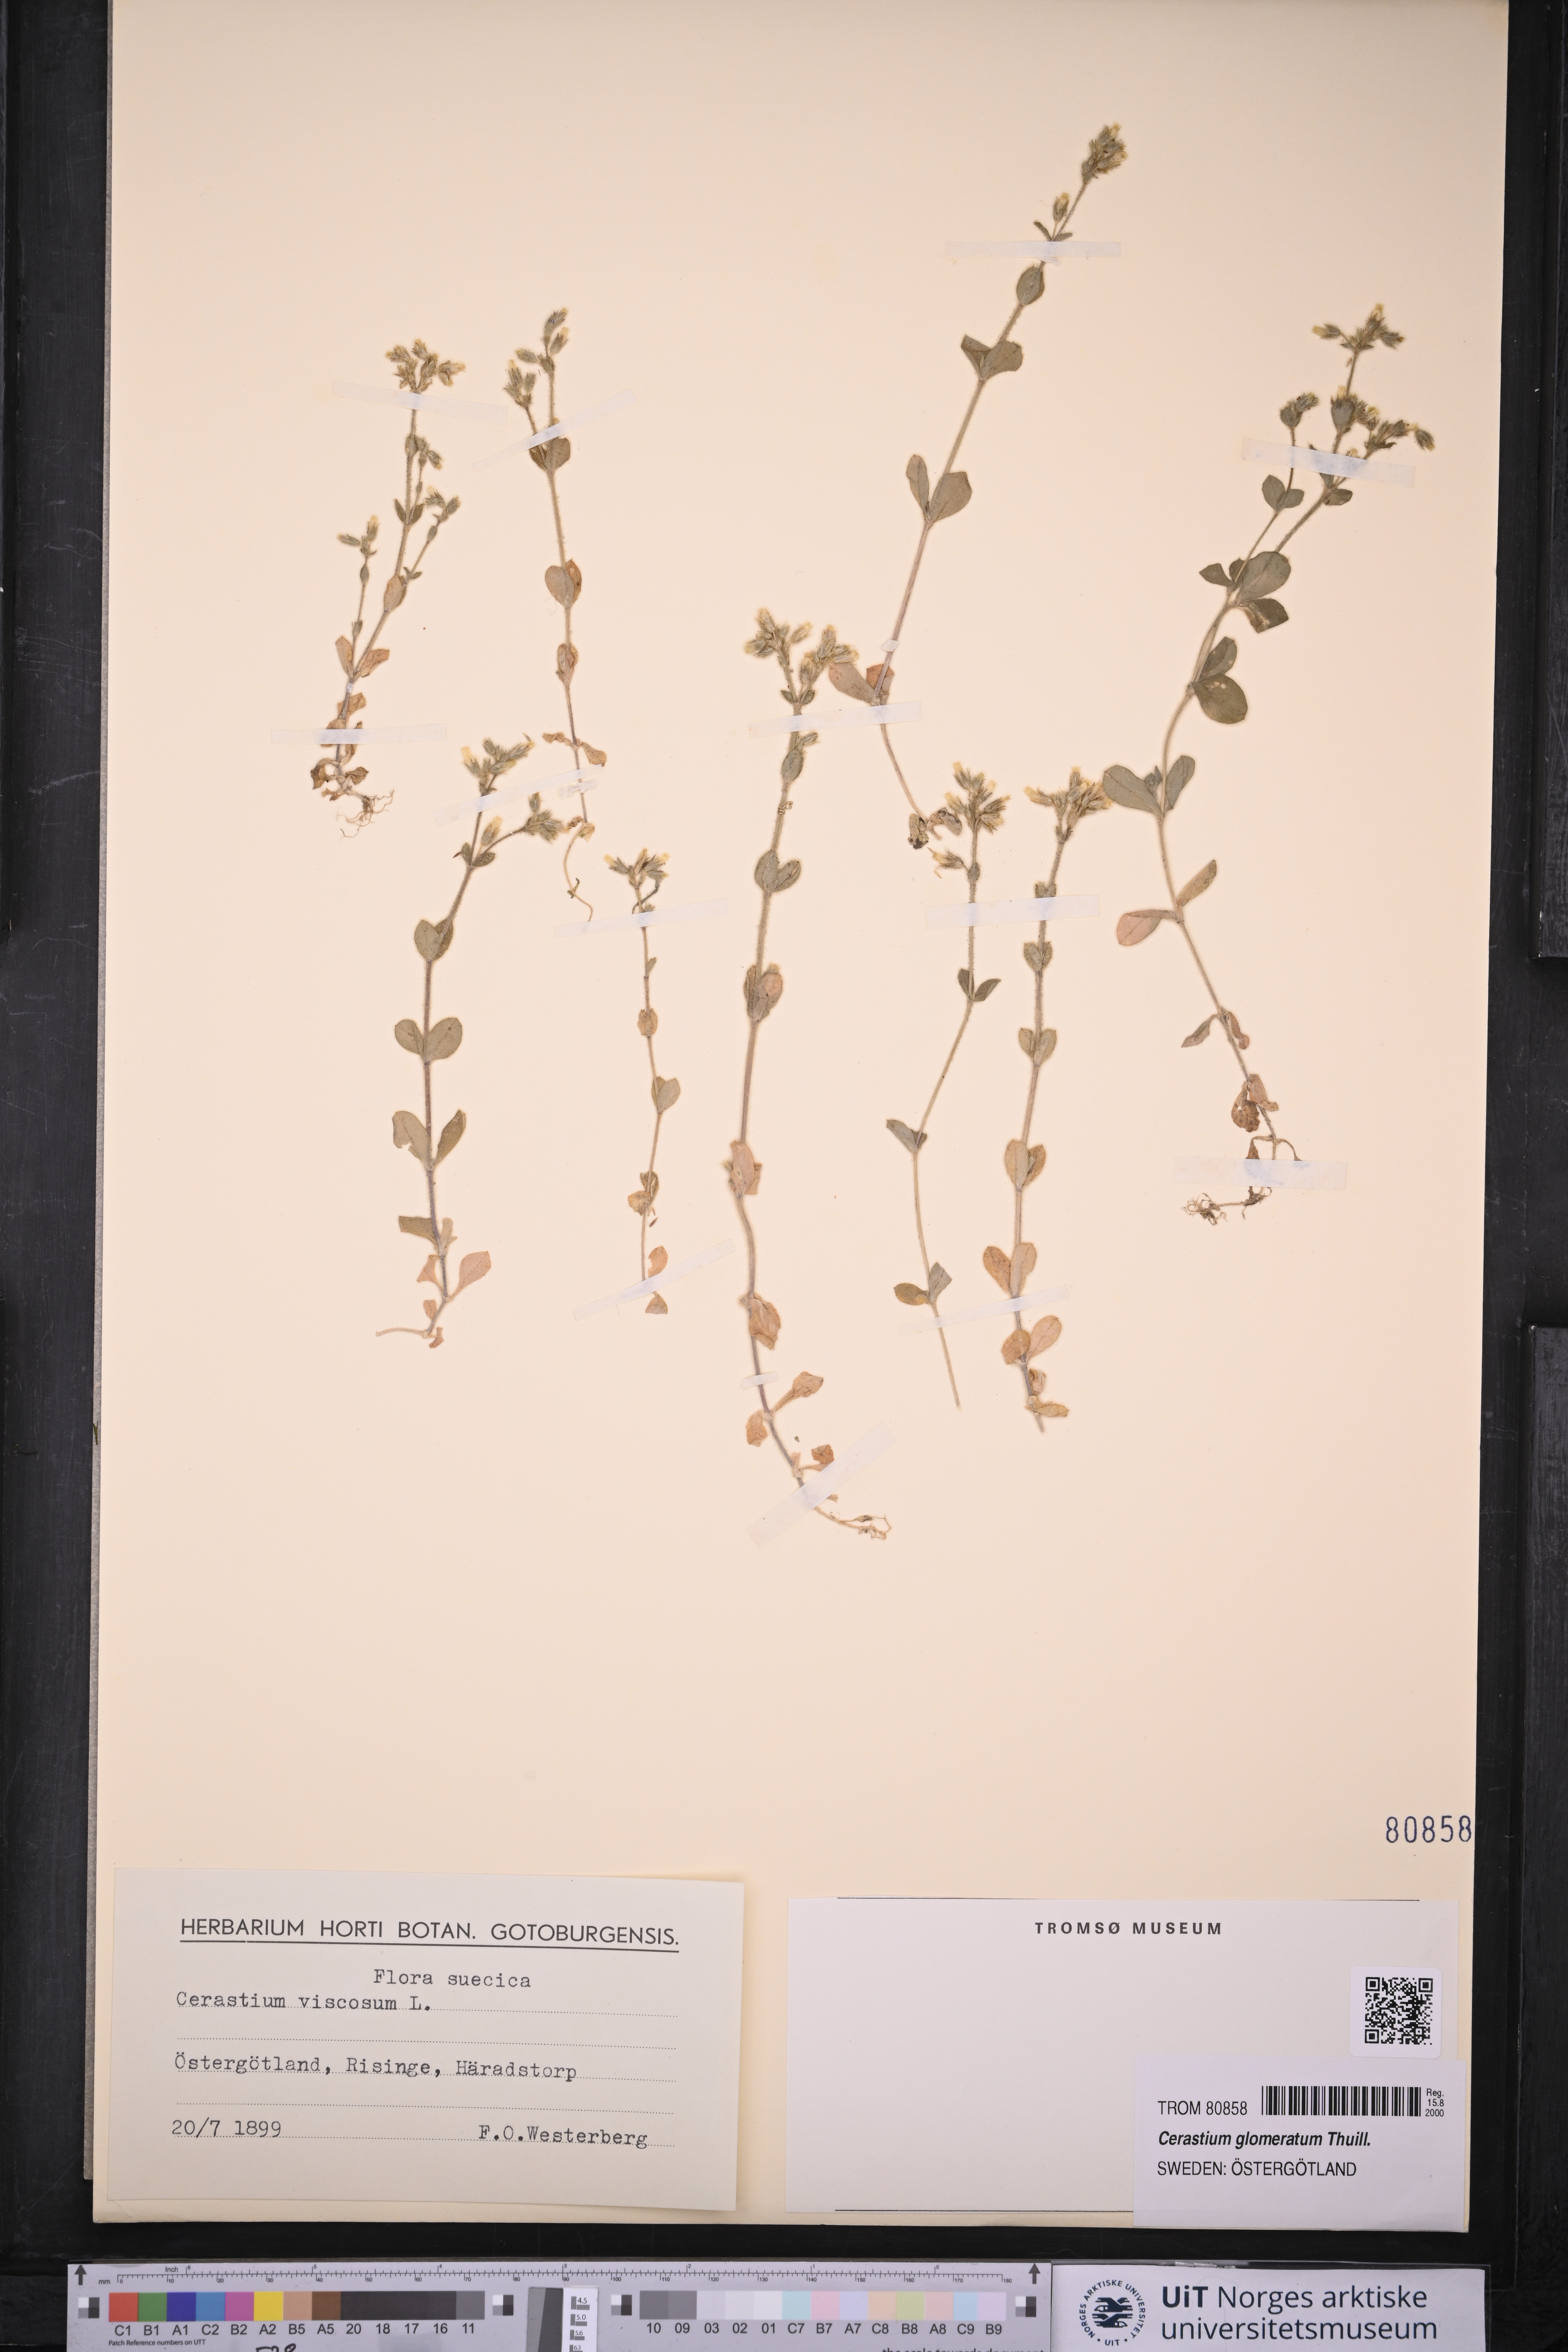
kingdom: Plantae
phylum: Tracheophyta
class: Magnoliopsida
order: Caryophyllales
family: Caryophyllaceae
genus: Cerastium
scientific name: Cerastium glomeratum
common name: Sticky chickweed
